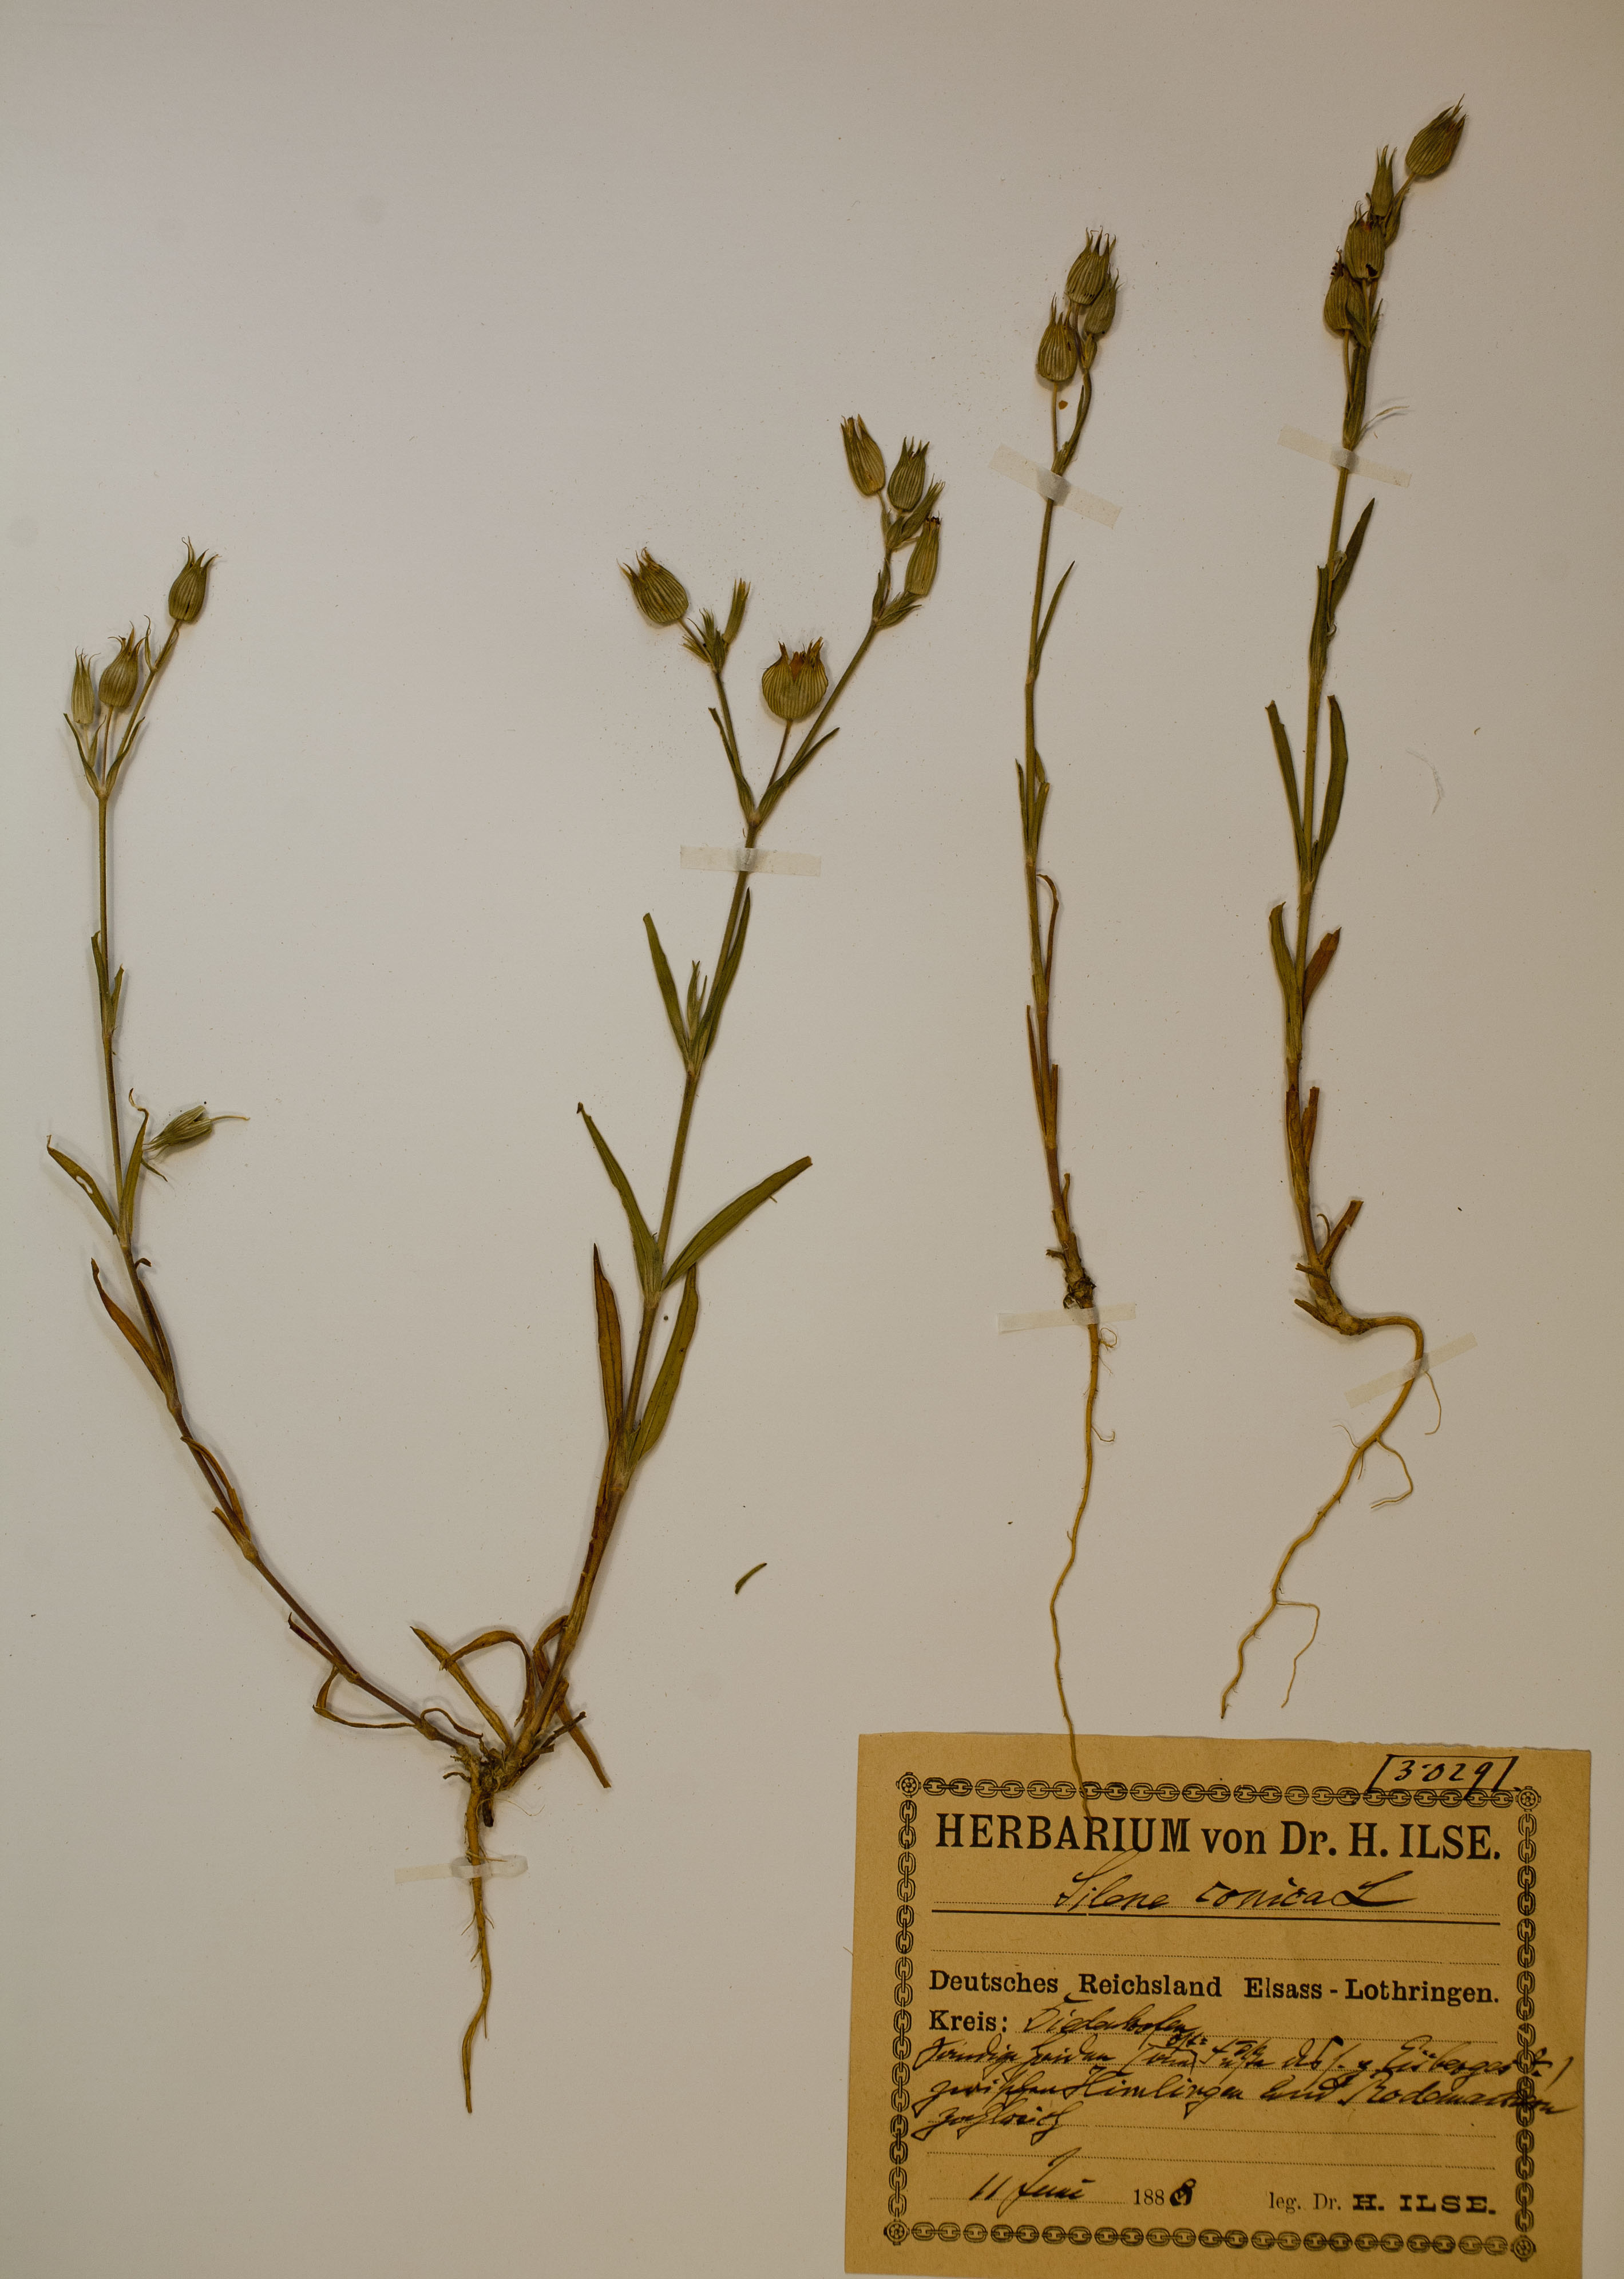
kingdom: Plantae
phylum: Tracheophyta
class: Magnoliopsida
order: Caryophyllales
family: Caryophyllaceae
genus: Silene
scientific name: Silene conica
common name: Sand catchfly
